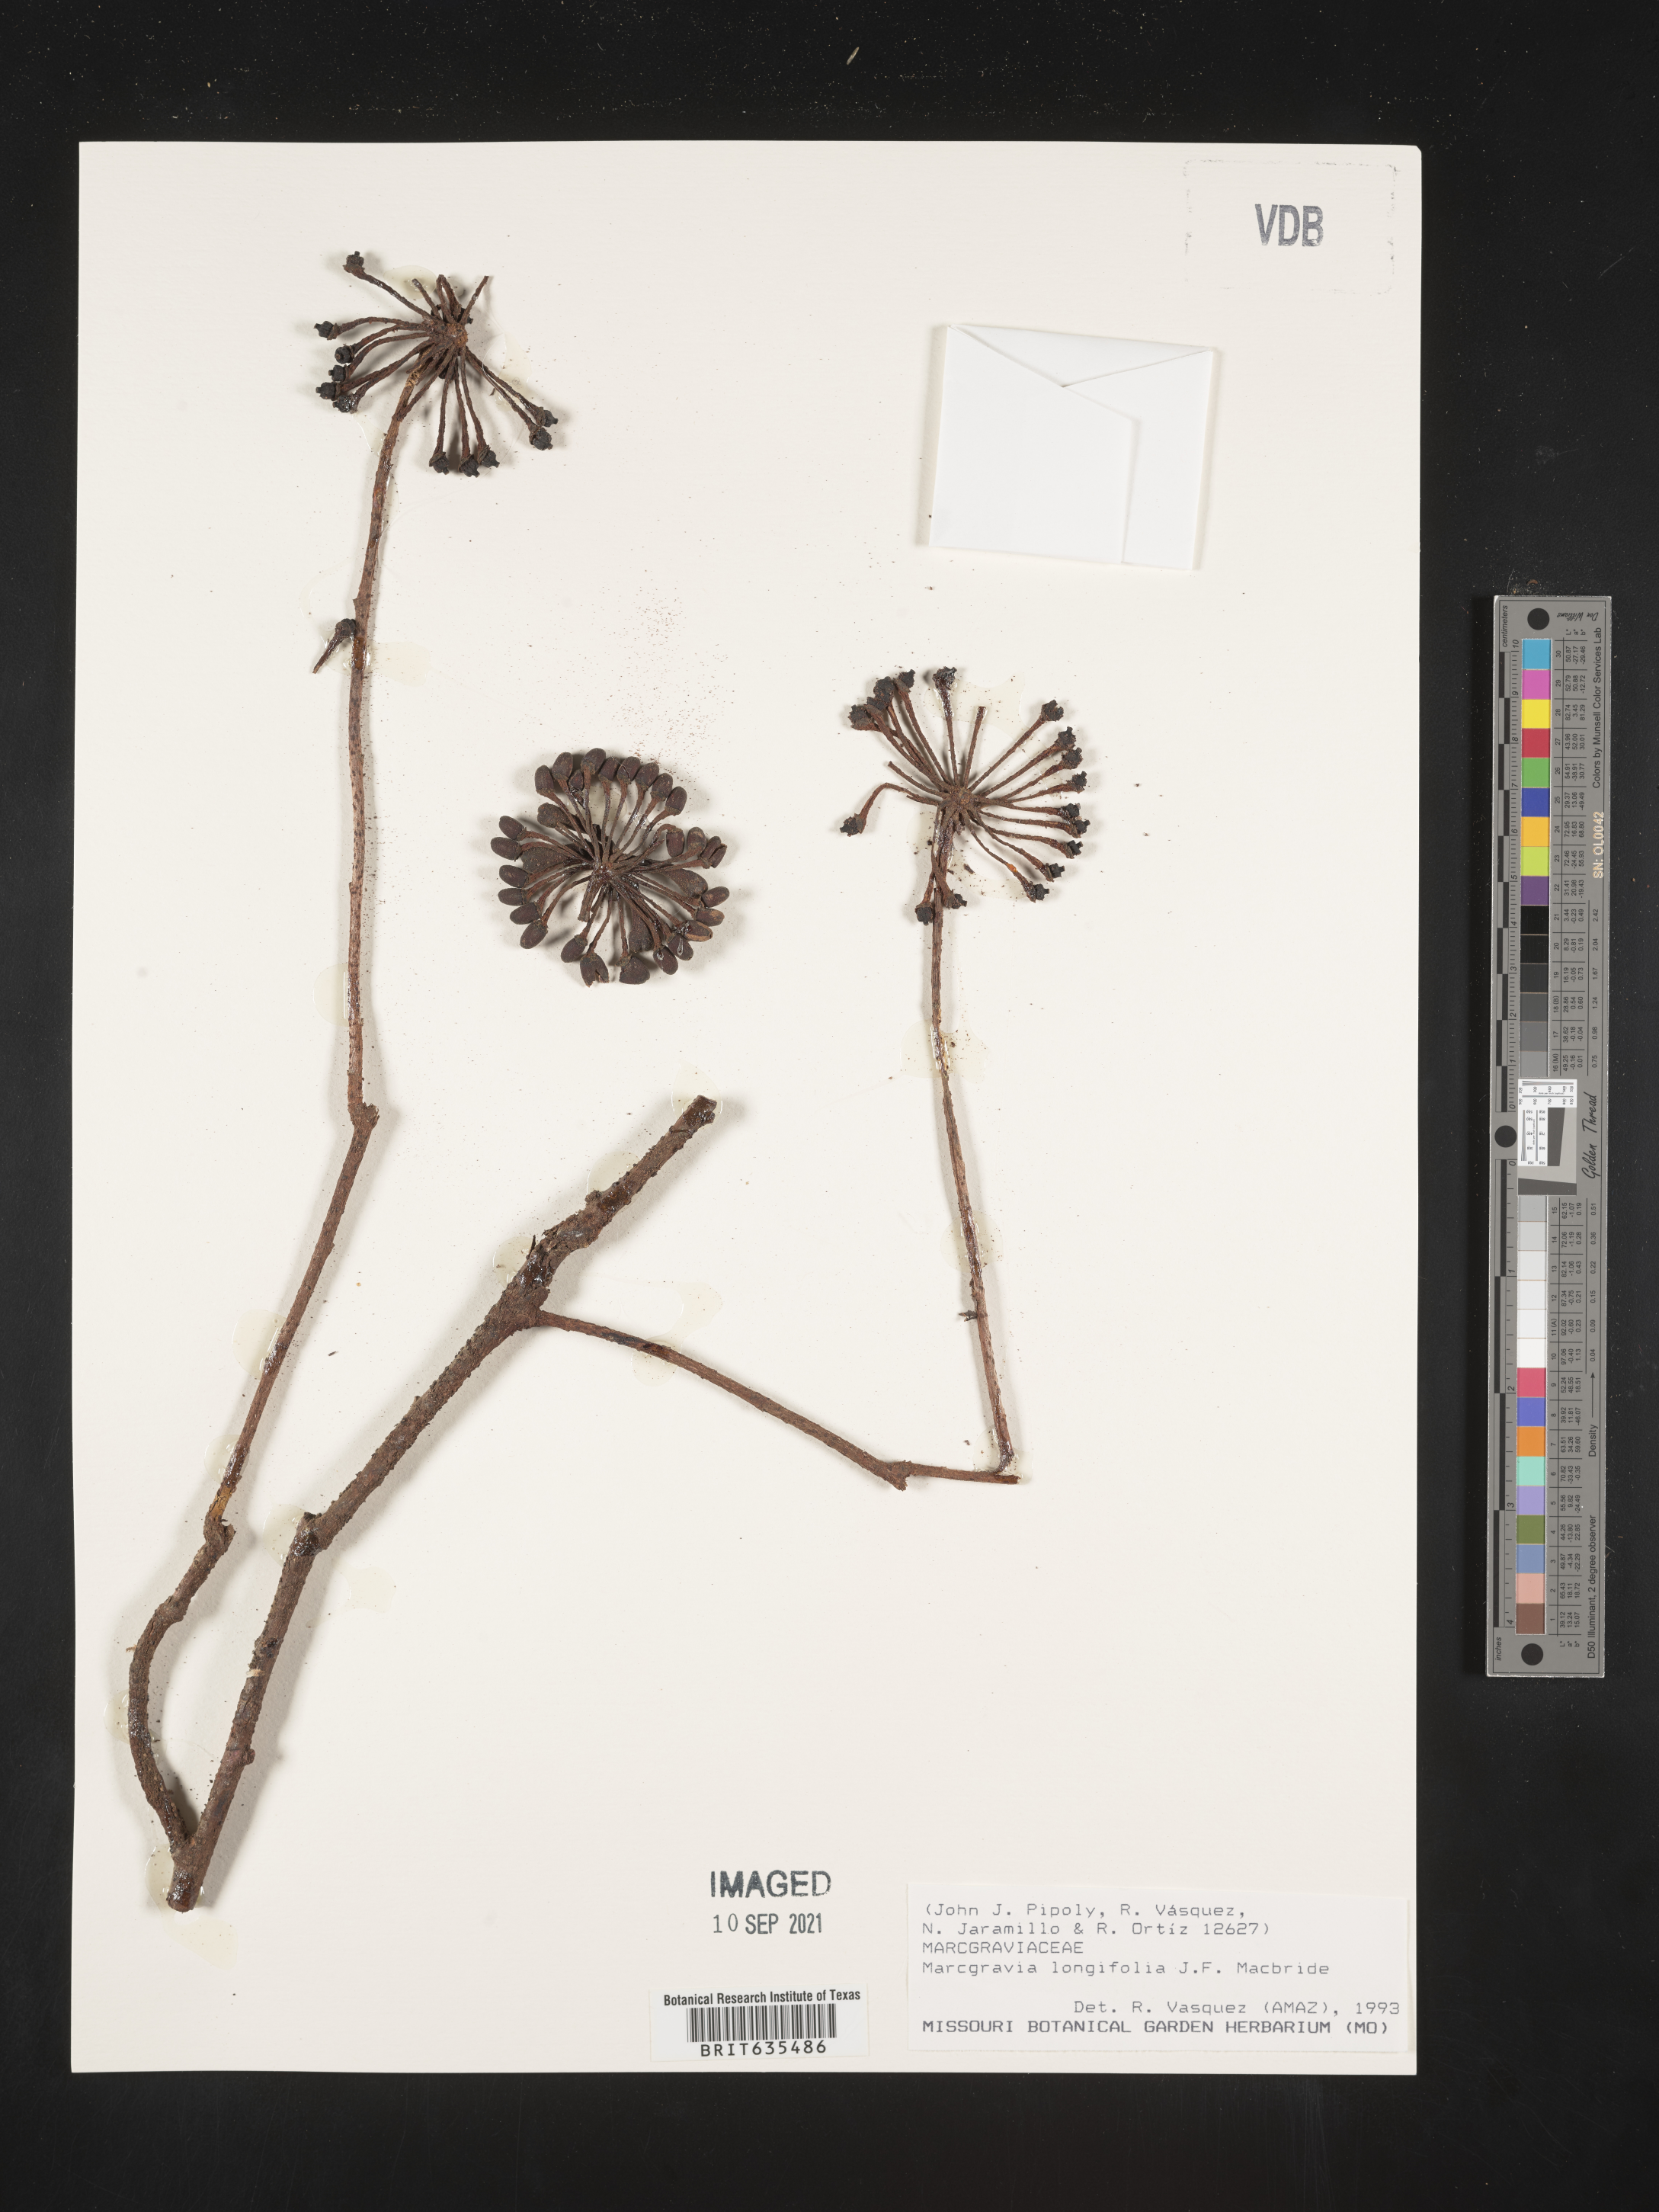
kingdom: Plantae
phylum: Tracheophyta
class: Magnoliopsida
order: Ericales
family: Marcgraviaceae
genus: Marcgravia
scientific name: Marcgravia
